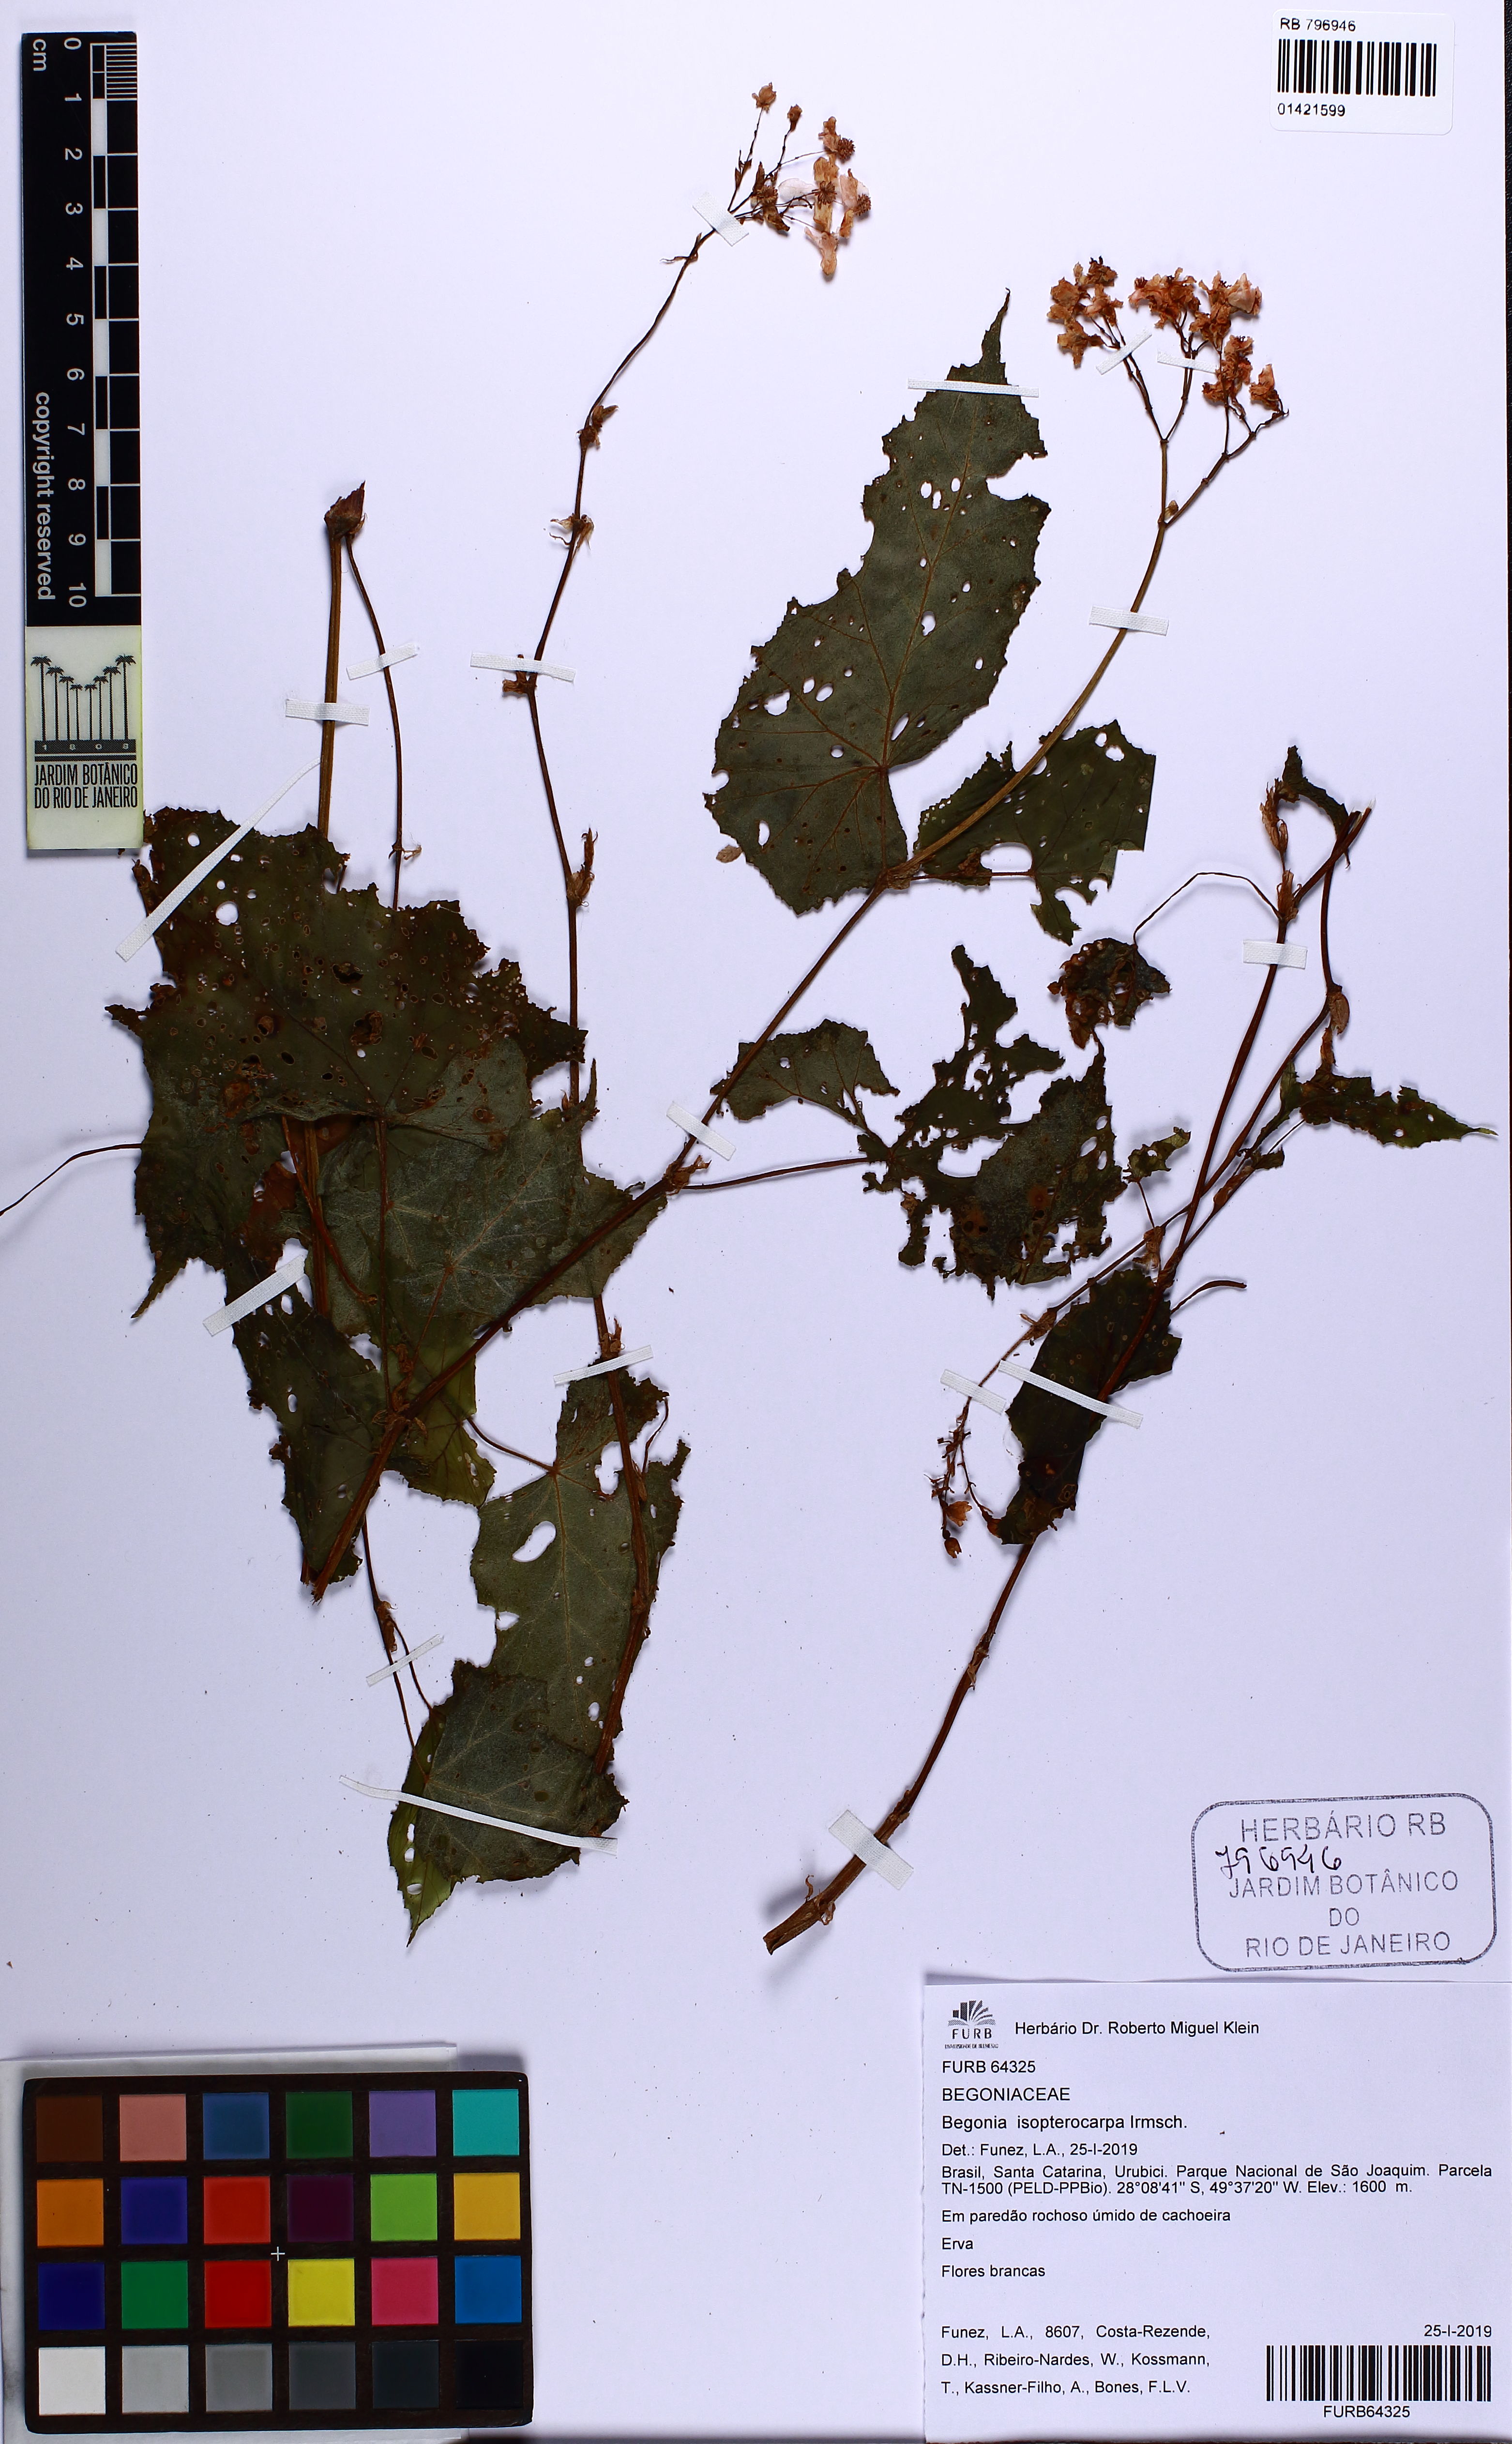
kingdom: Plantae
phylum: Tracheophyta
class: Magnoliopsida
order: Cucurbitales
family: Begoniaceae
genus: Begonia
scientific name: Begonia lineolata
